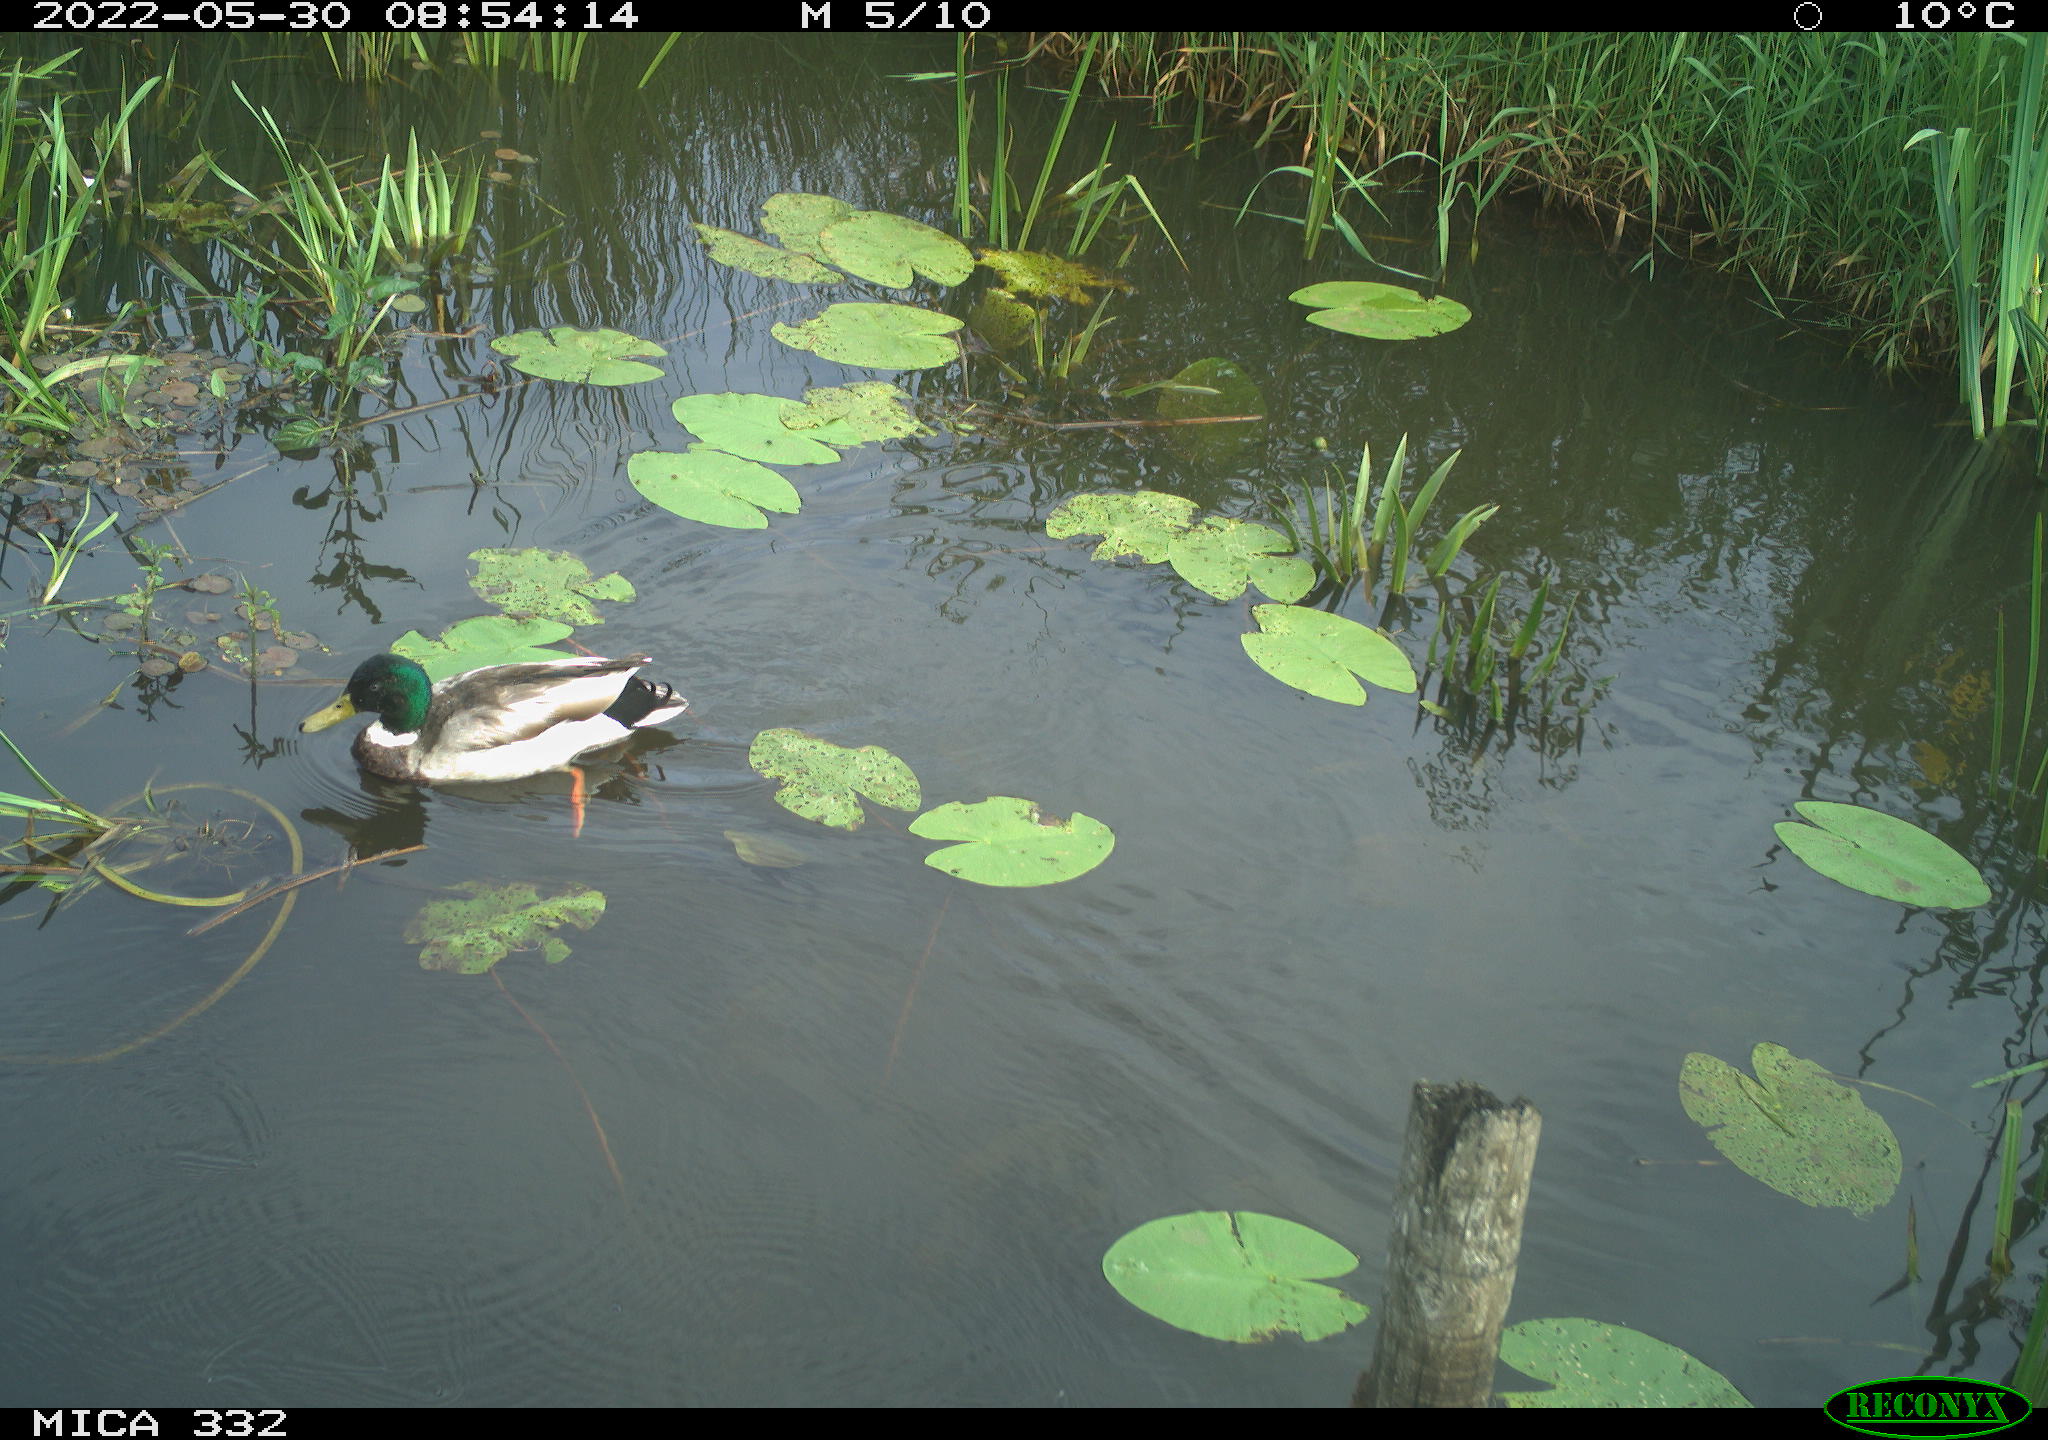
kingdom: Animalia
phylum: Chordata
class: Aves
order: Anseriformes
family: Anatidae
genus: Anas
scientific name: Anas platyrhynchos
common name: Mallard
